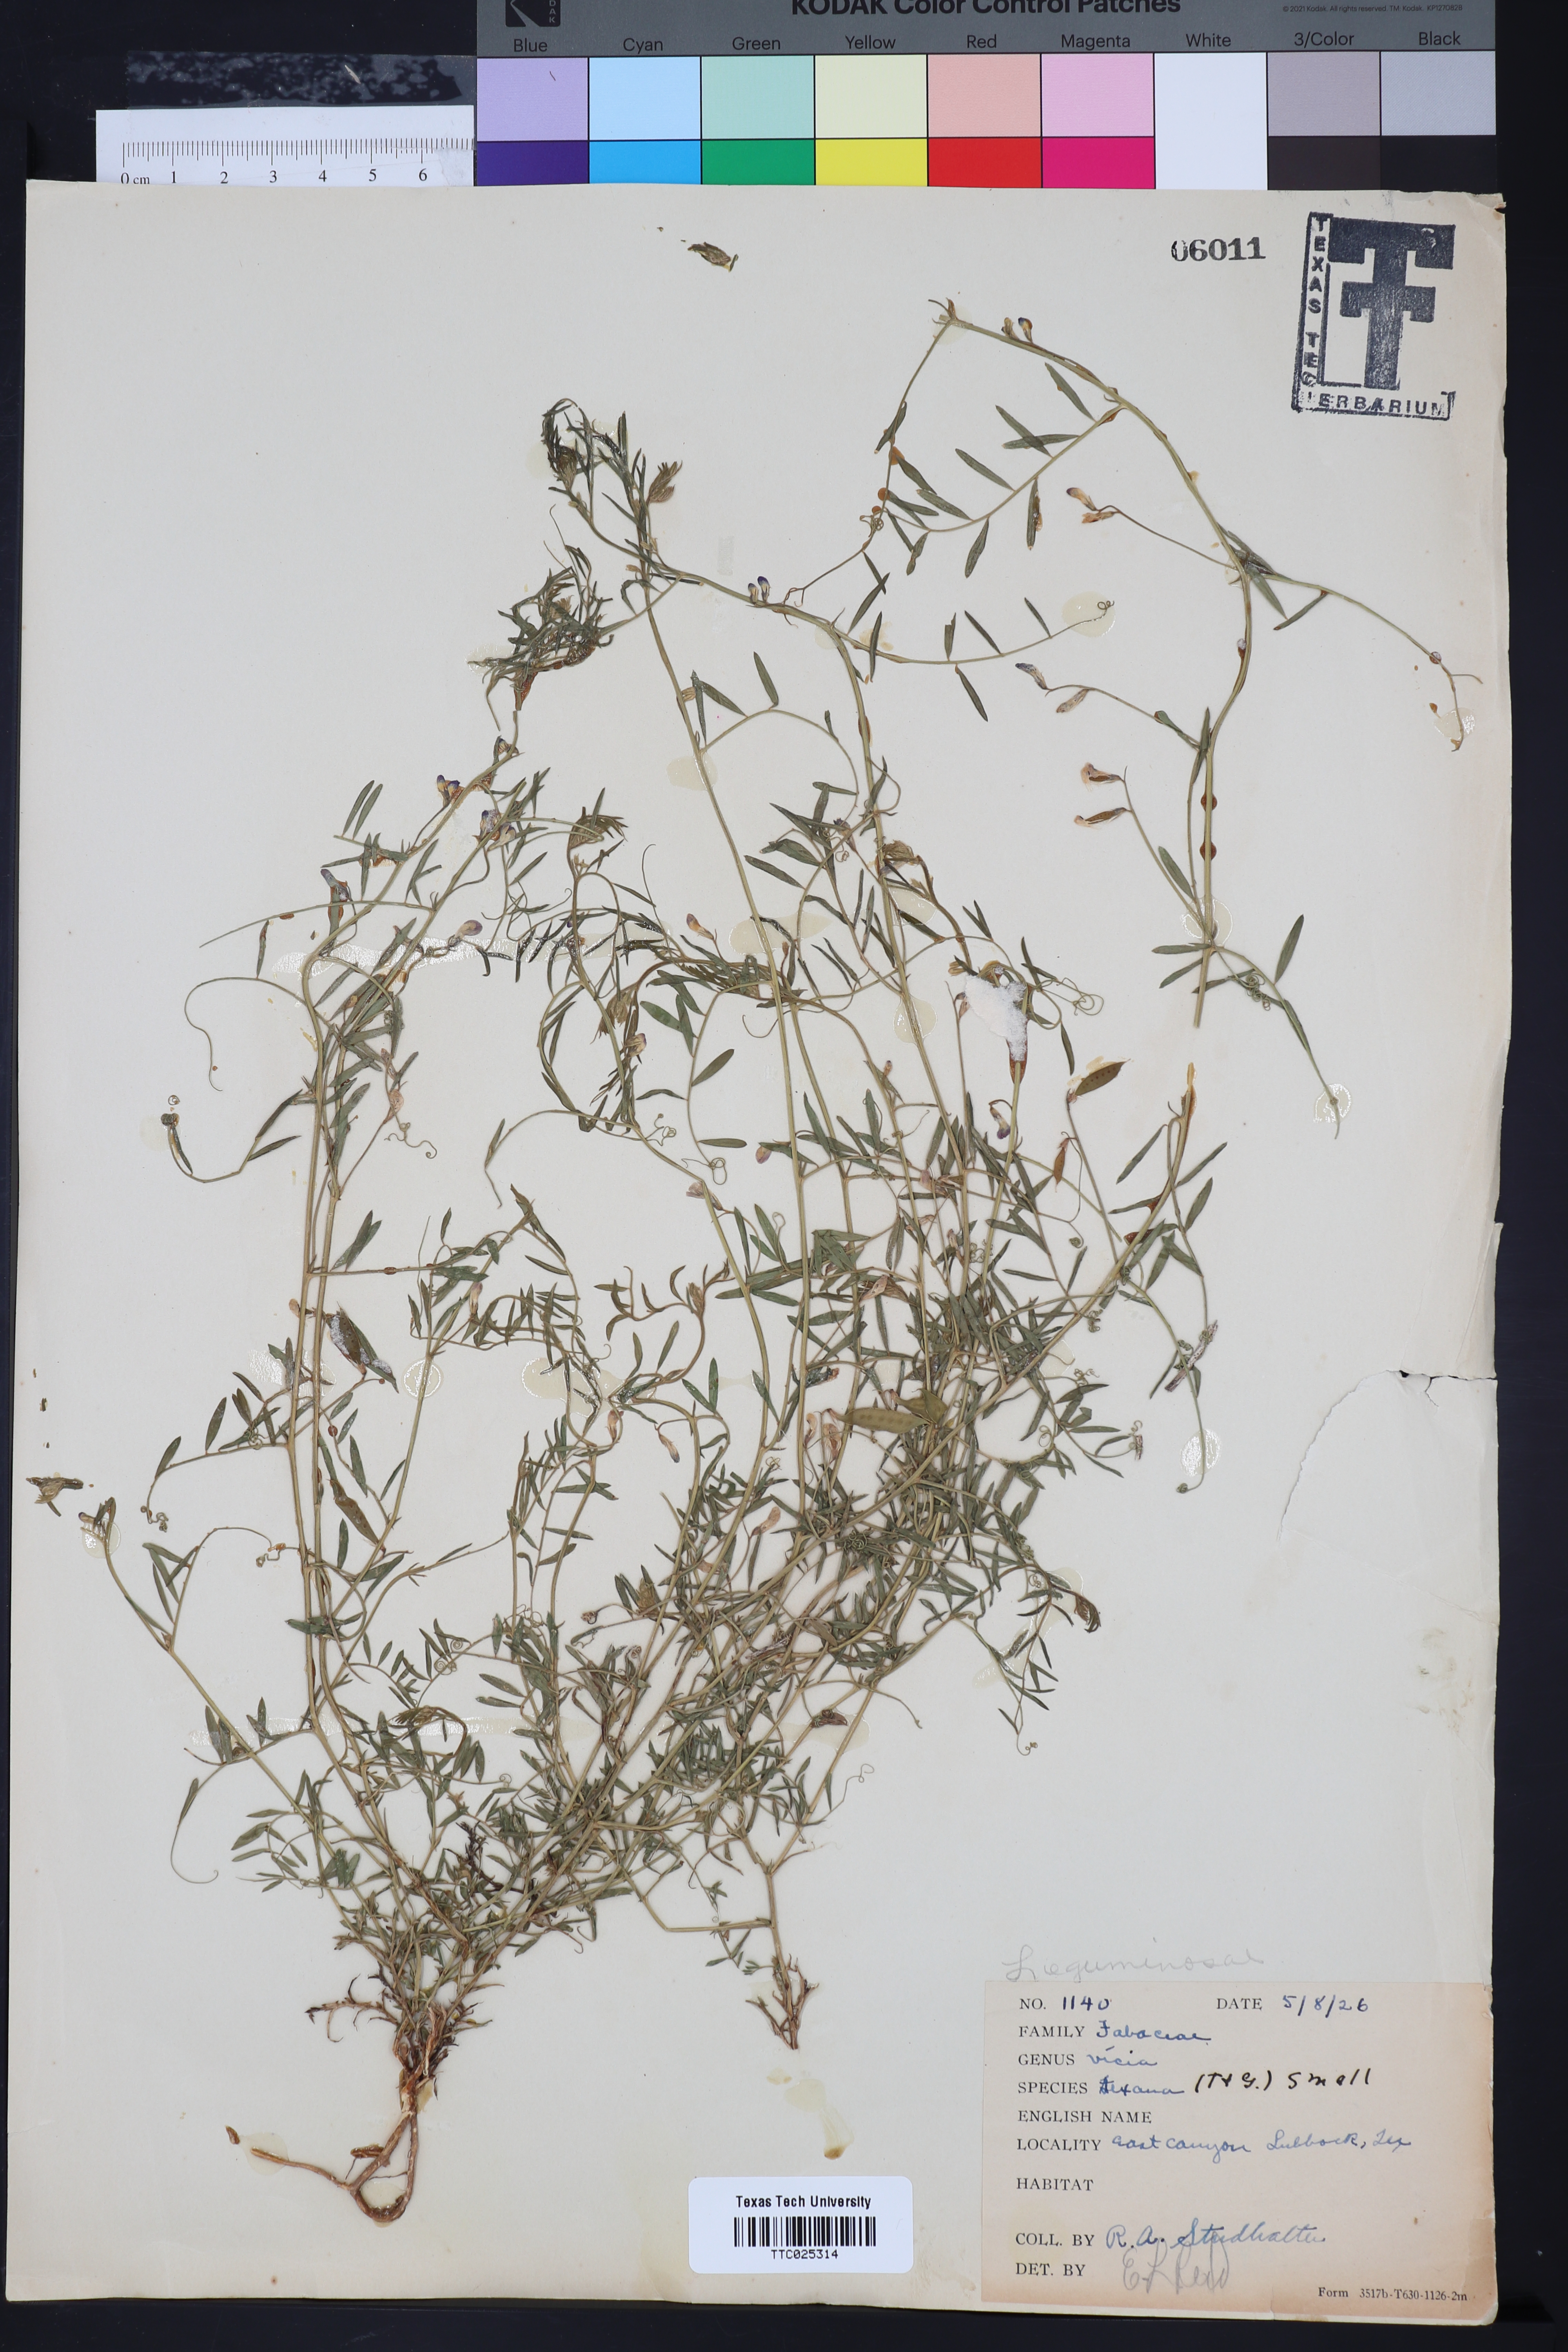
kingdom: Plantae
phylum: Tracheophyta
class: Magnoliopsida
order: Fabales
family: Fabaceae
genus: Vicia
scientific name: Vicia ludoviciana
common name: Louisiana vetch
